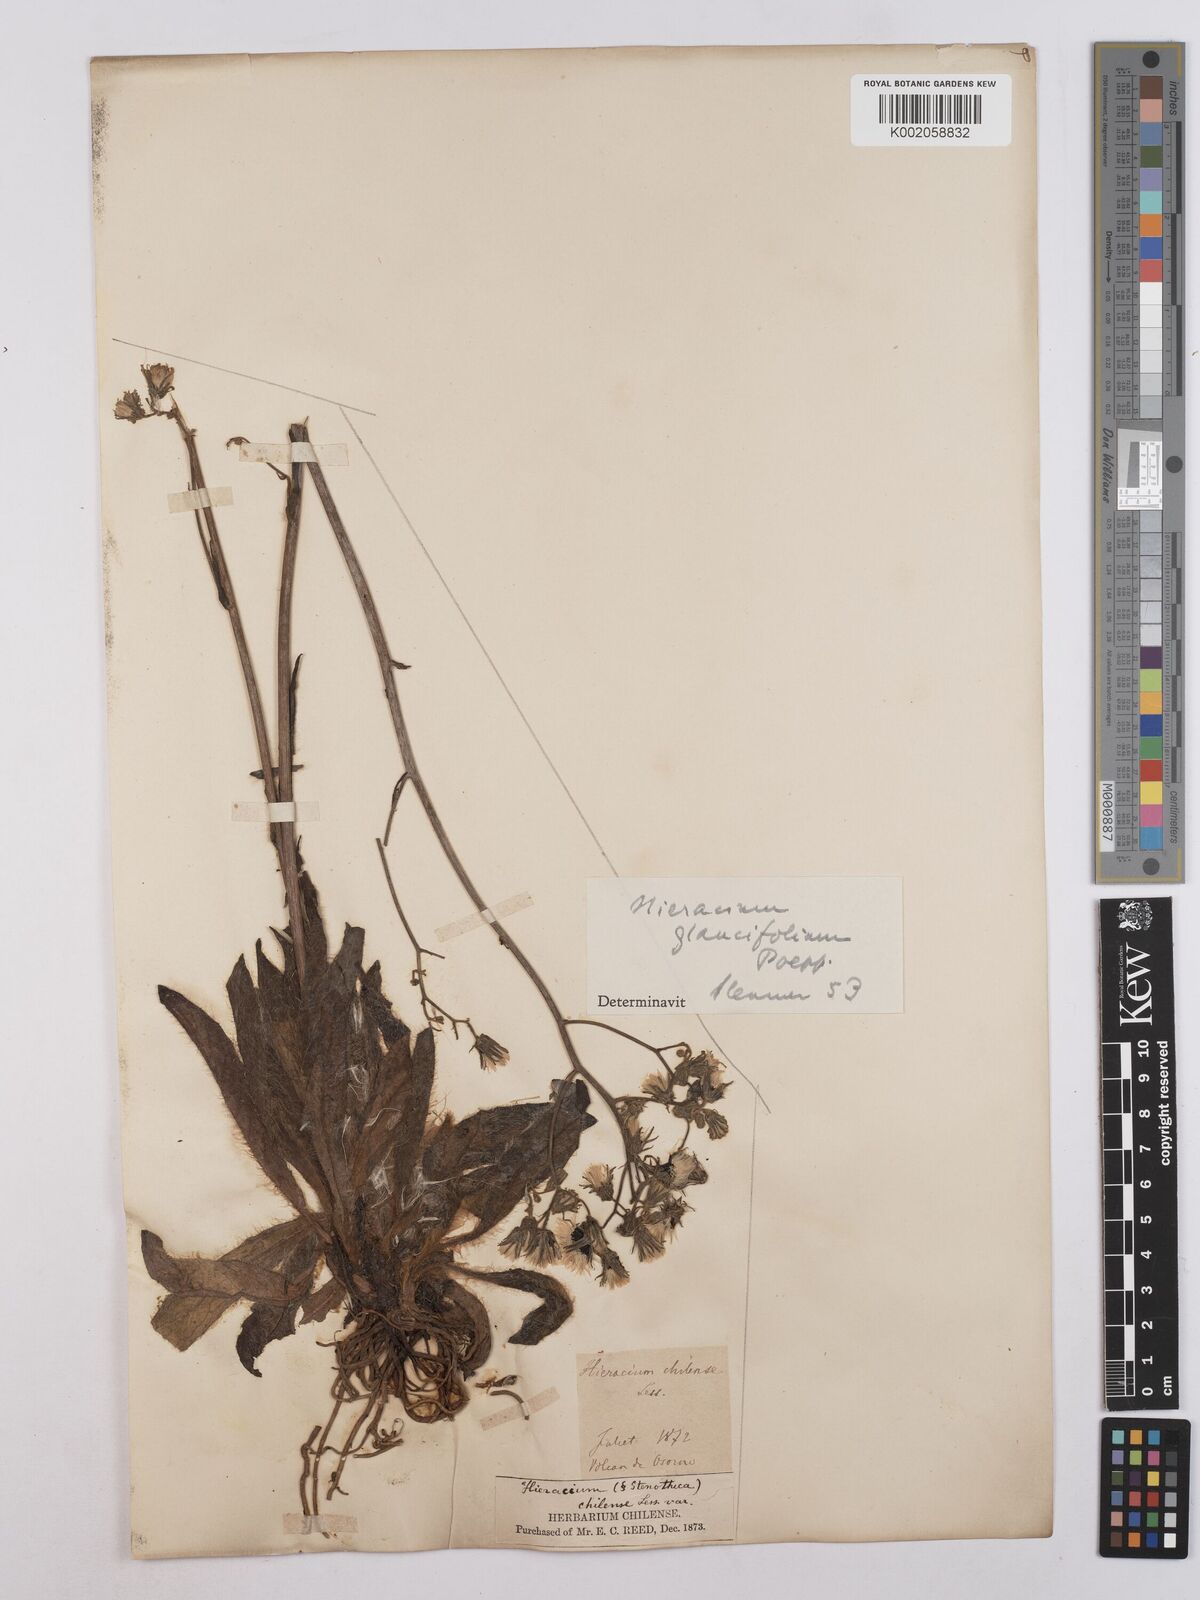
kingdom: Plantae
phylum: Tracheophyta
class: Magnoliopsida
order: Asterales
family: Asteraceae
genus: Hieracium
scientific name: Hieracium chilense
